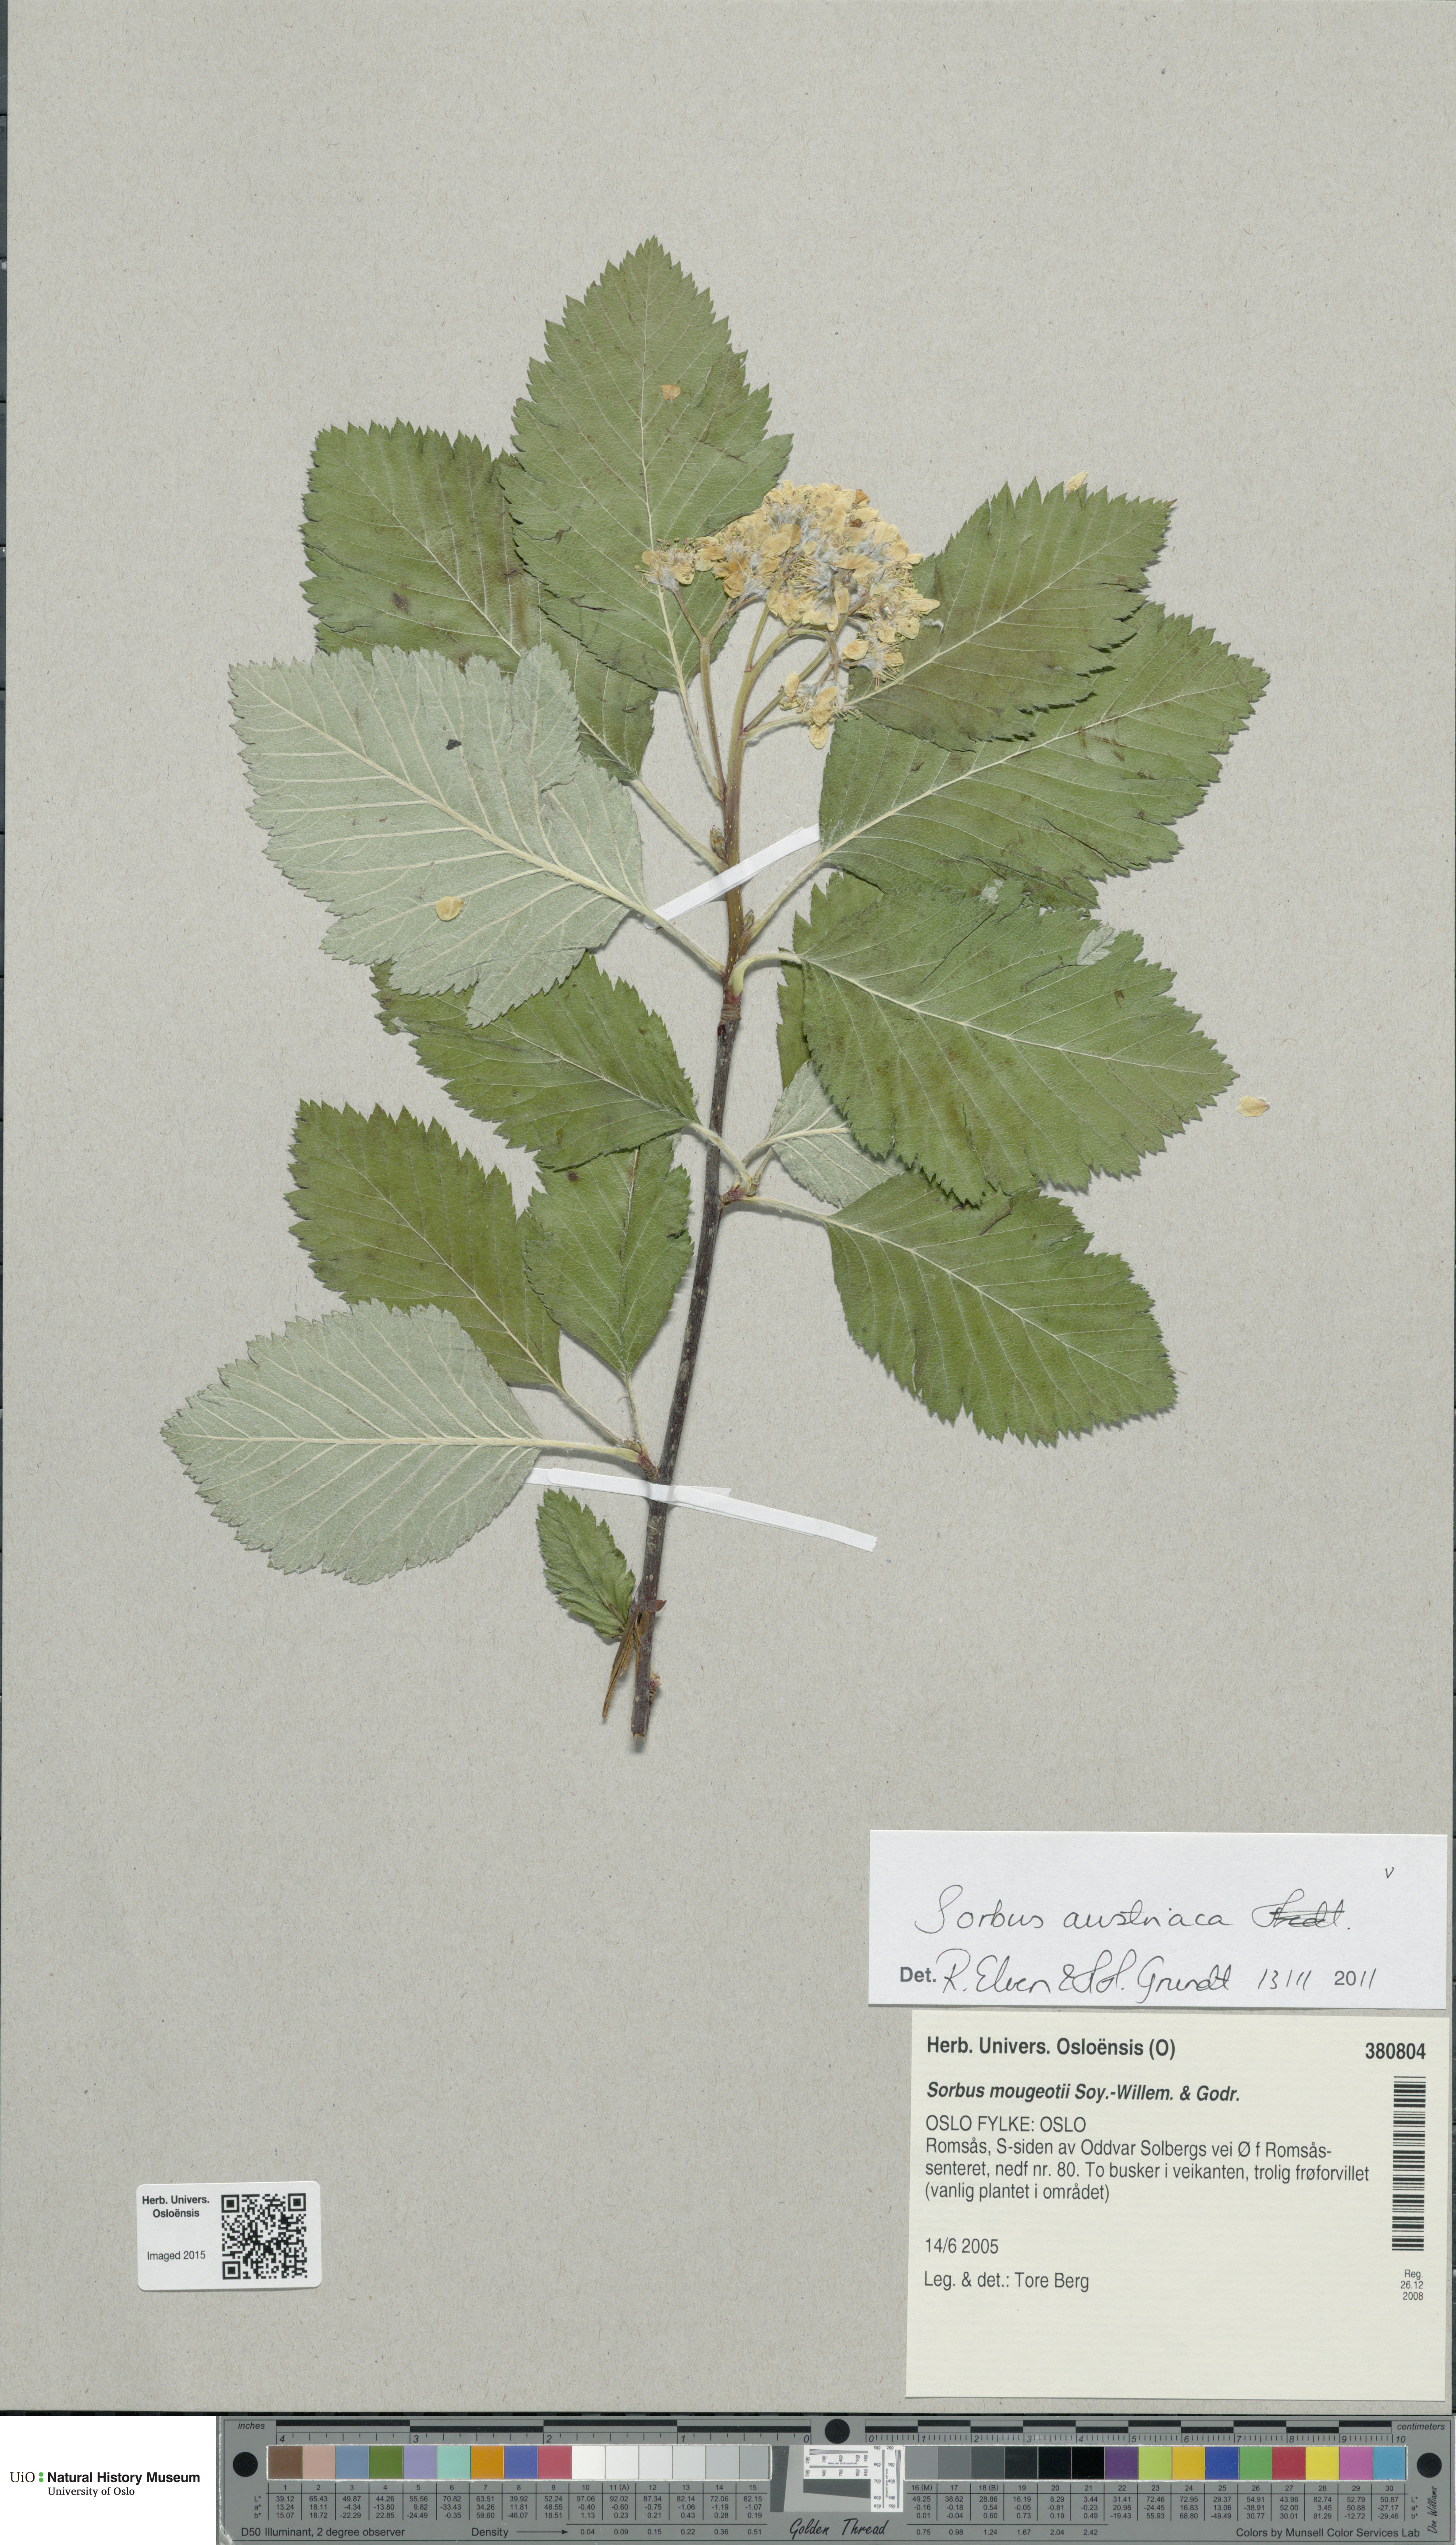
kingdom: Plantae
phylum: Tracheophyta
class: Magnoliopsida
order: Rosales
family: Rosaceae
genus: Hedlundia
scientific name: Hedlundia austriaca
